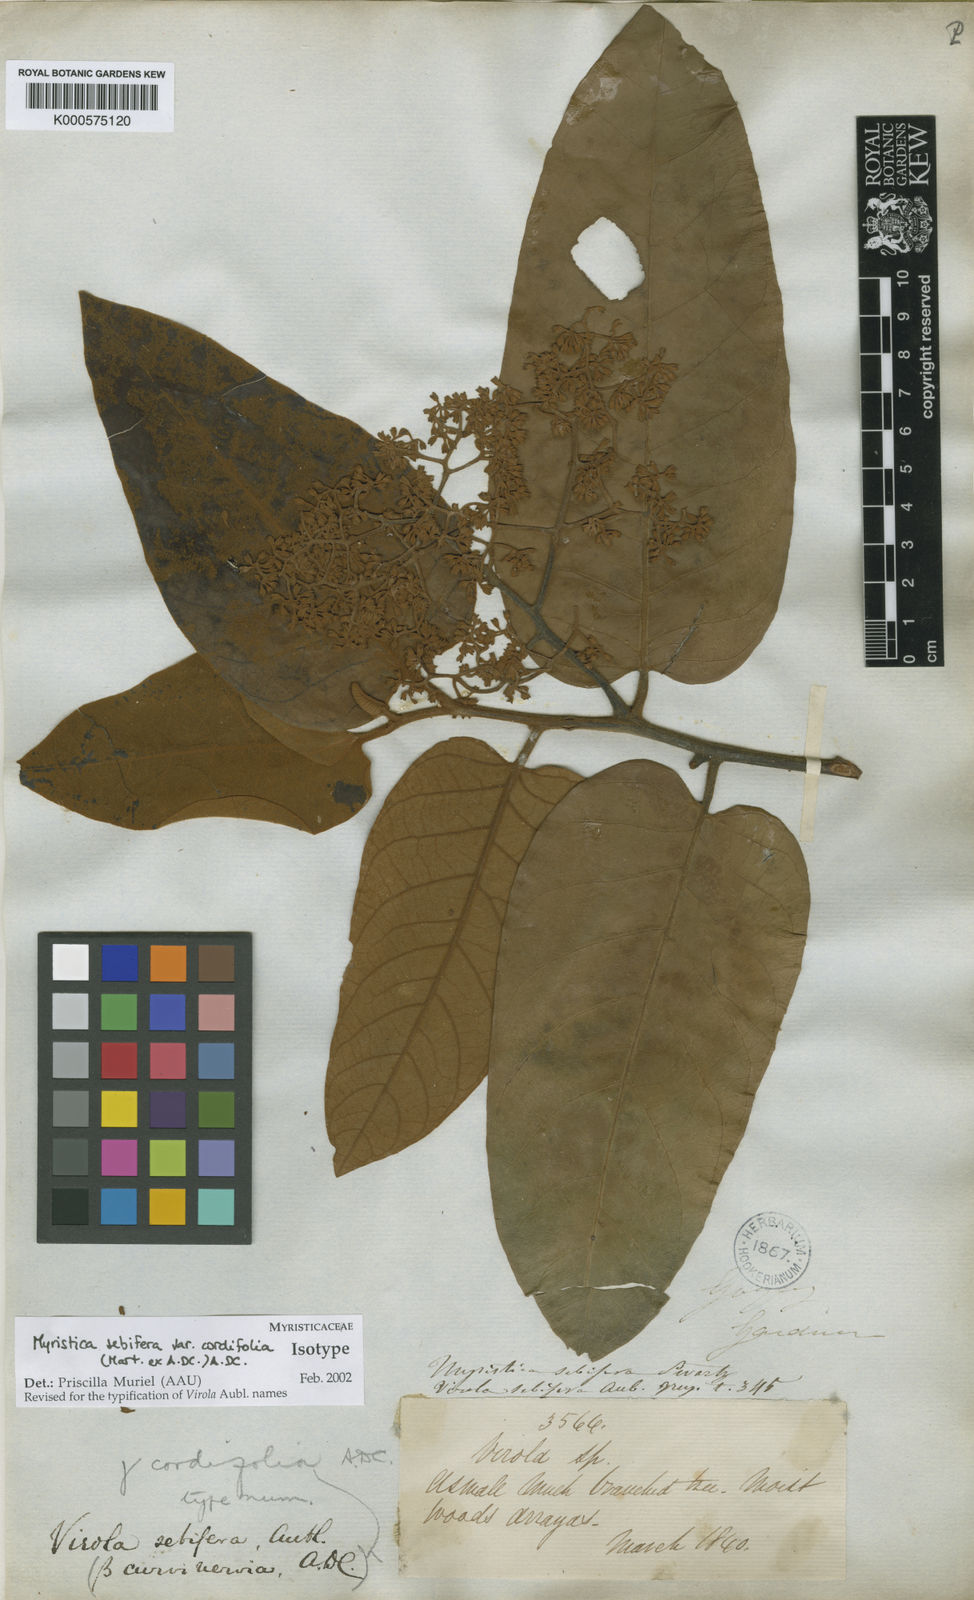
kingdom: Plantae
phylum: Tracheophyta
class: Magnoliopsida
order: Magnoliales
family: Myristicaceae
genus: Virola
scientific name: Virola sebifera
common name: Red ucuuba
